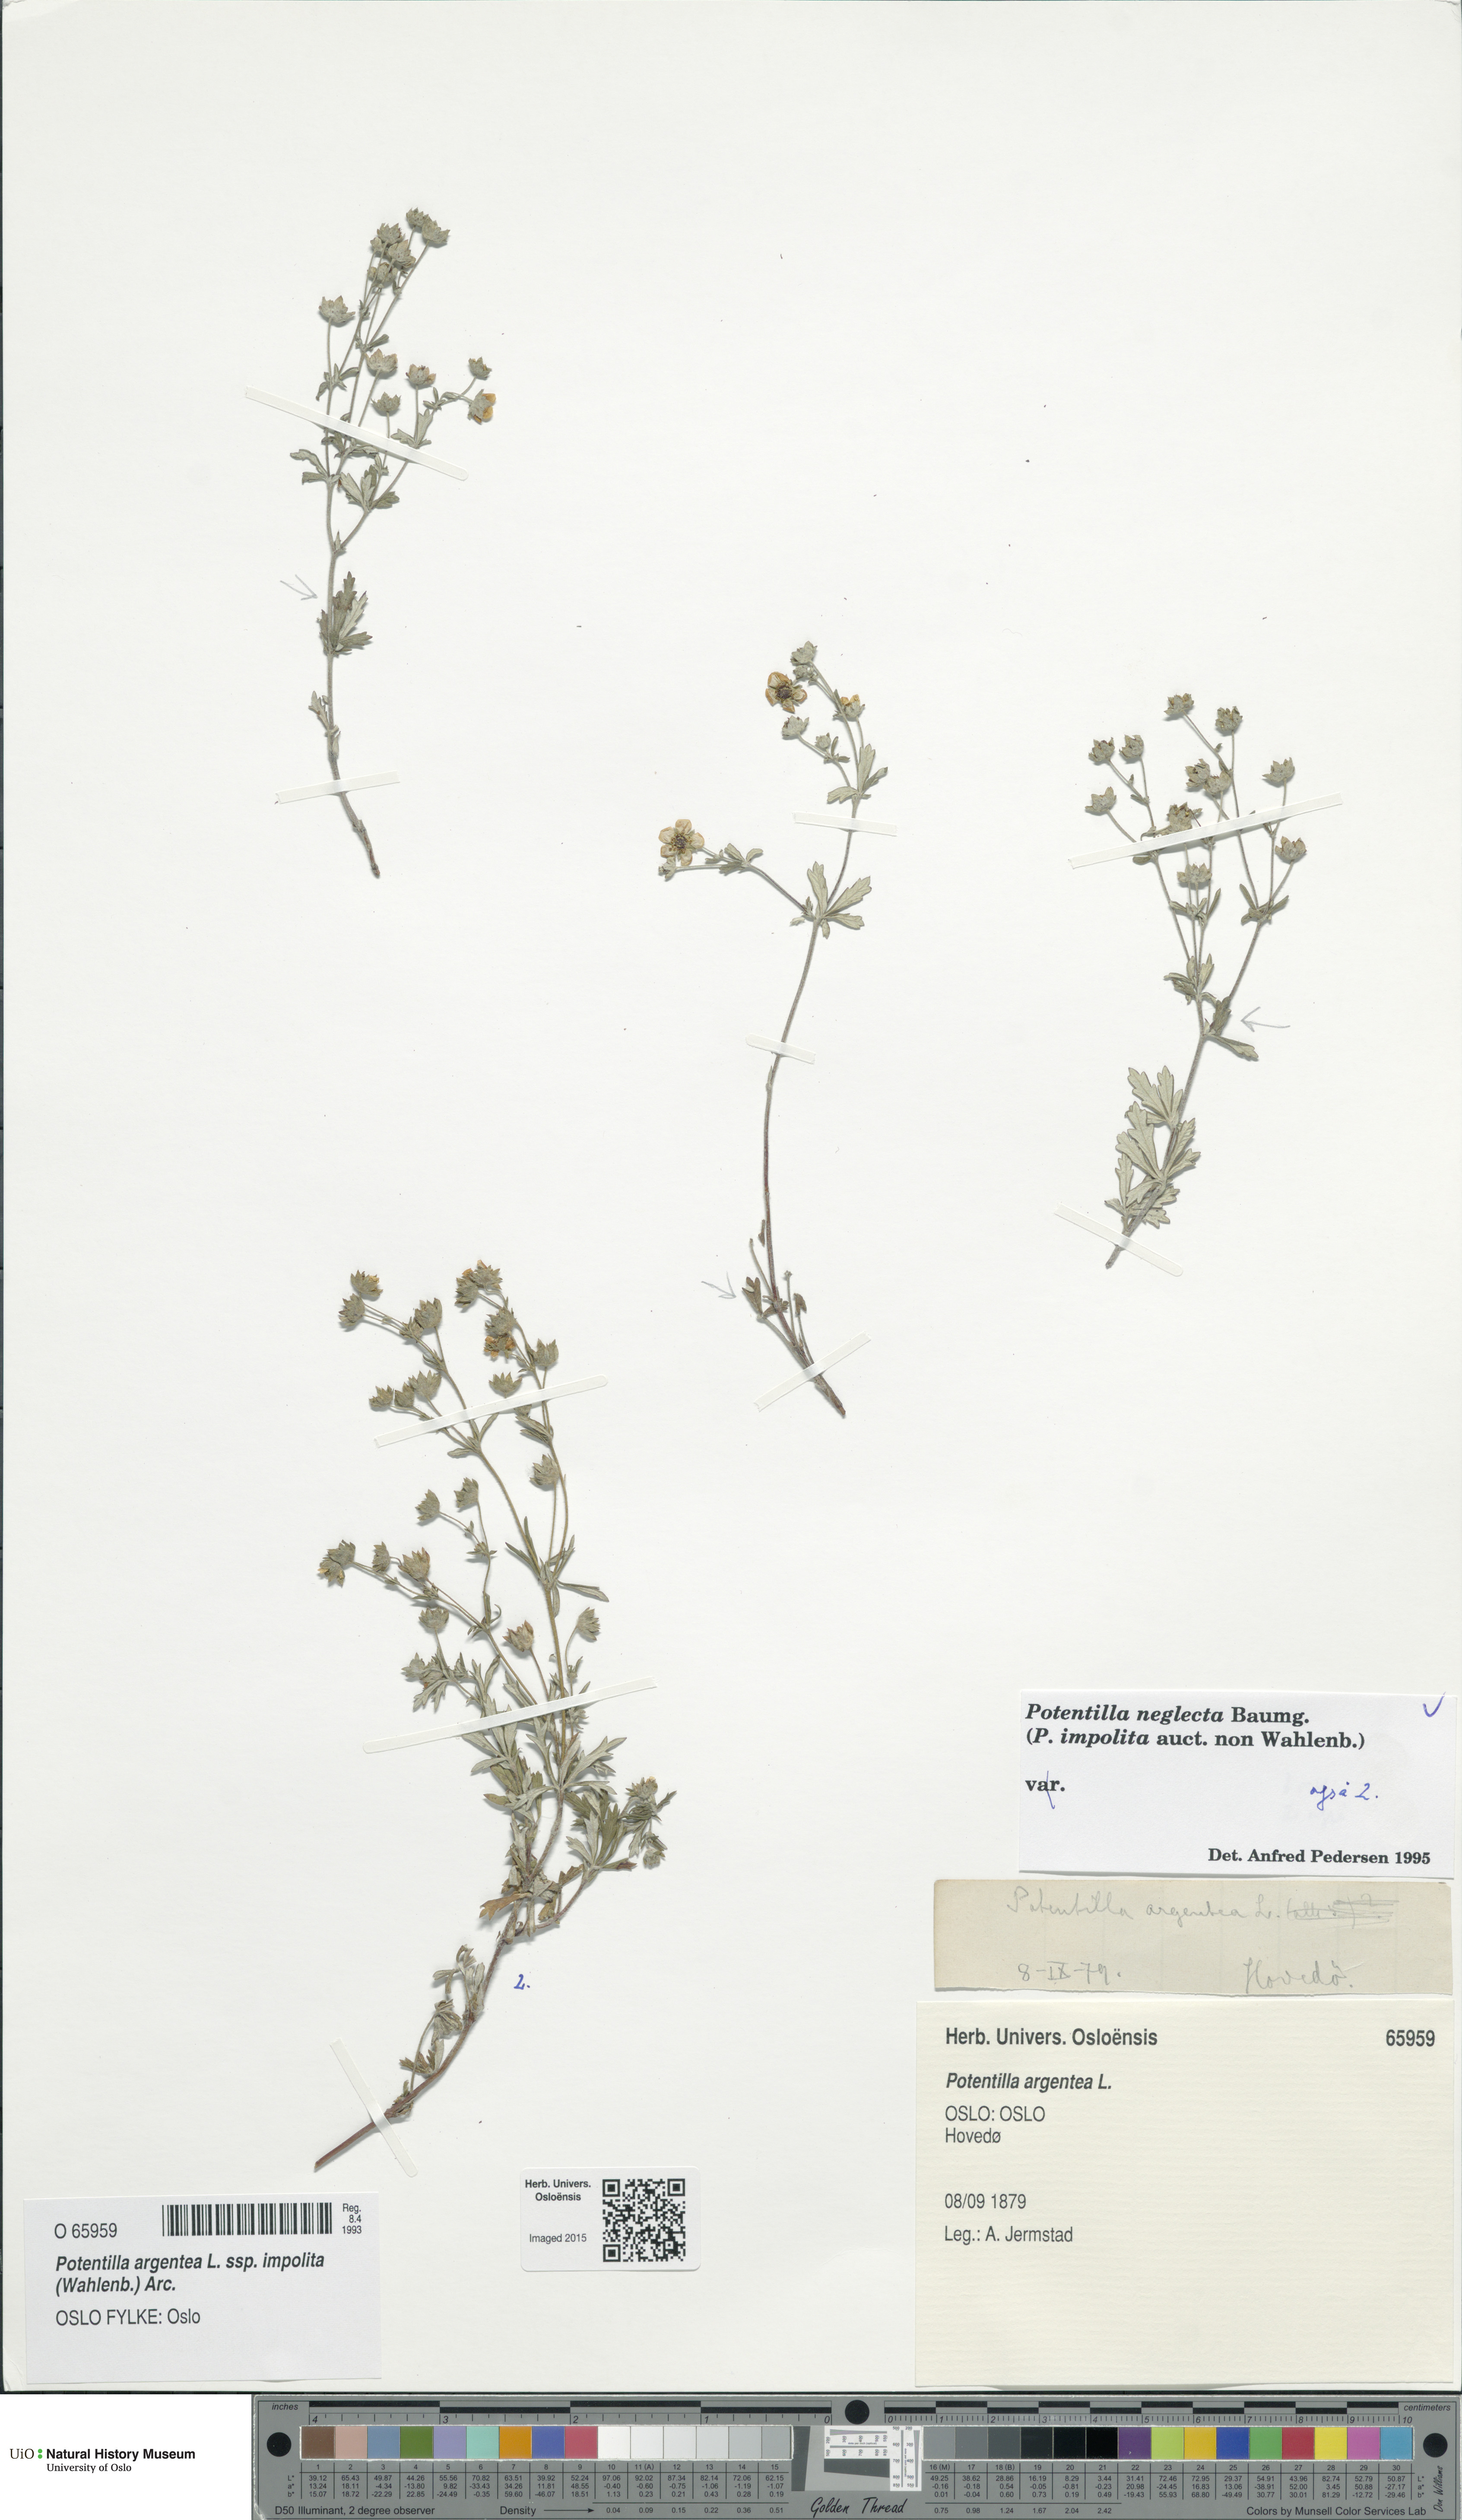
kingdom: Plantae
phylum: Tracheophyta
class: Magnoliopsida
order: Rosales
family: Rosaceae
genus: Potentilla
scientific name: Potentilla neglecta
